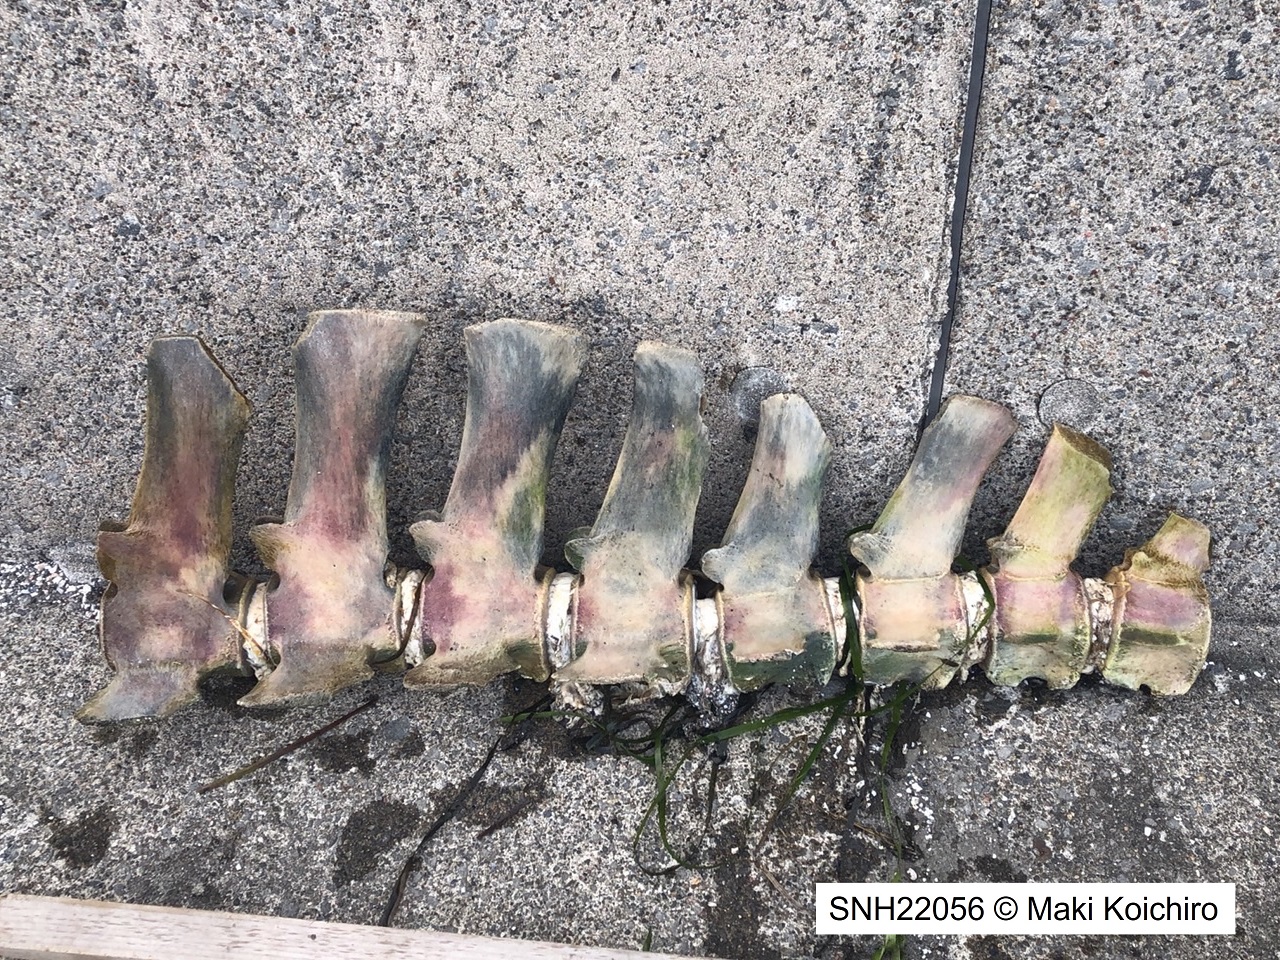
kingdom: Animalia
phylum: Chordata
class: Mammalia
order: Cetacea
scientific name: Cetacea
